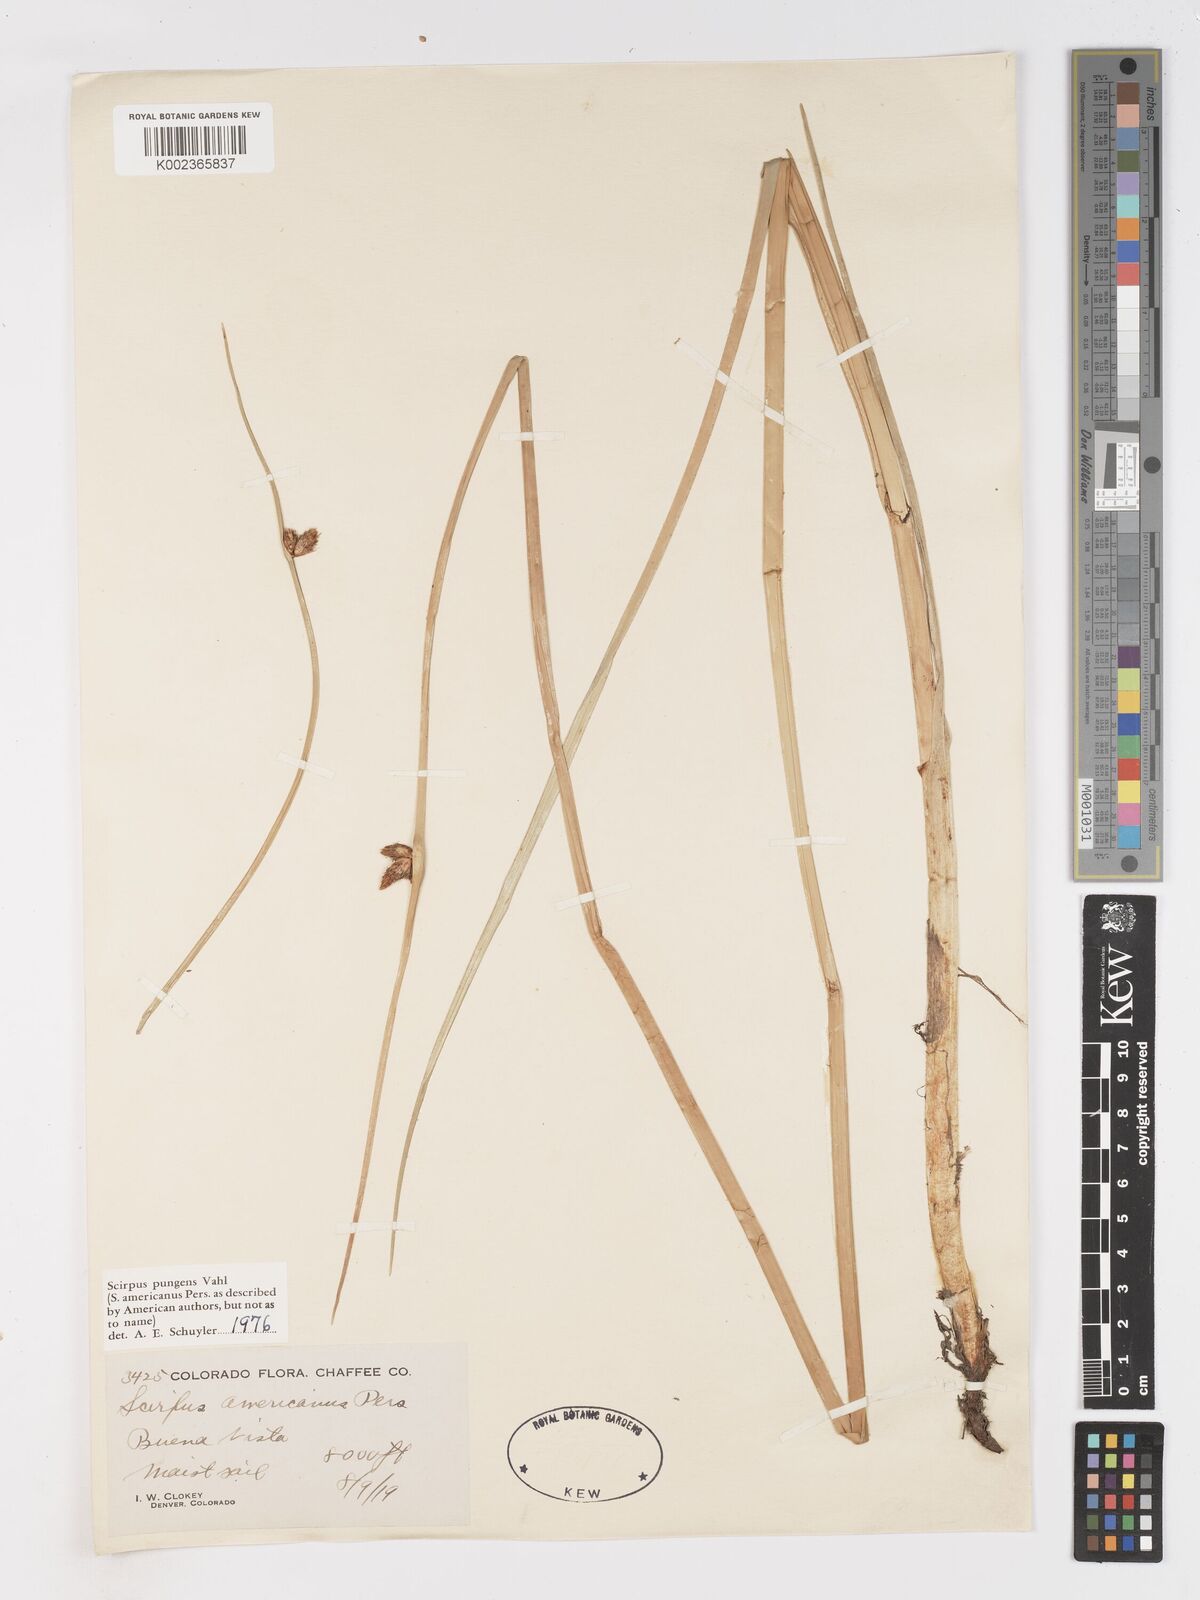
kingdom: Plantae
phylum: Tracheophyta
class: Liliopsida
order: Poales
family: Cyperaceae
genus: Schoenoplectus
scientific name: Schoenoplectus pungens
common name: Sharp club-rush
